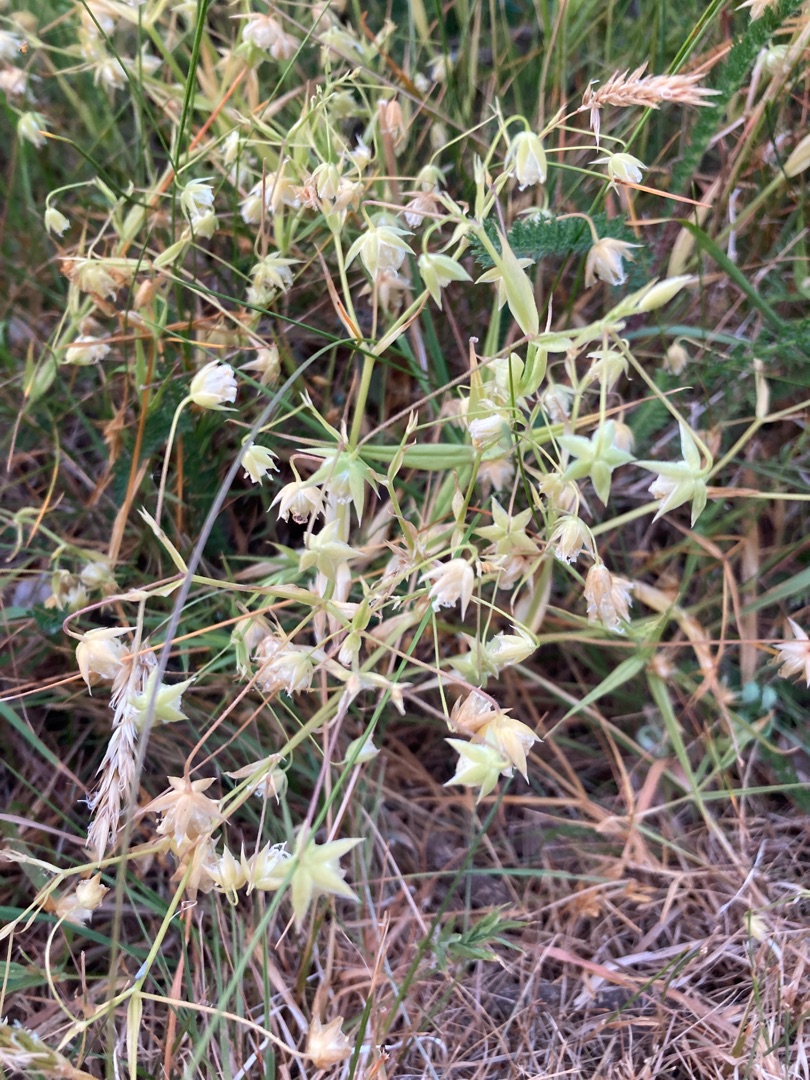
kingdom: Plantae
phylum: Tracheophyta
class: Magnoliopsida
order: Caryophyllales
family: Caryophyllaceae
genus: Rabelera
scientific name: Rabelera holostea
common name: Stor fladstjerne
